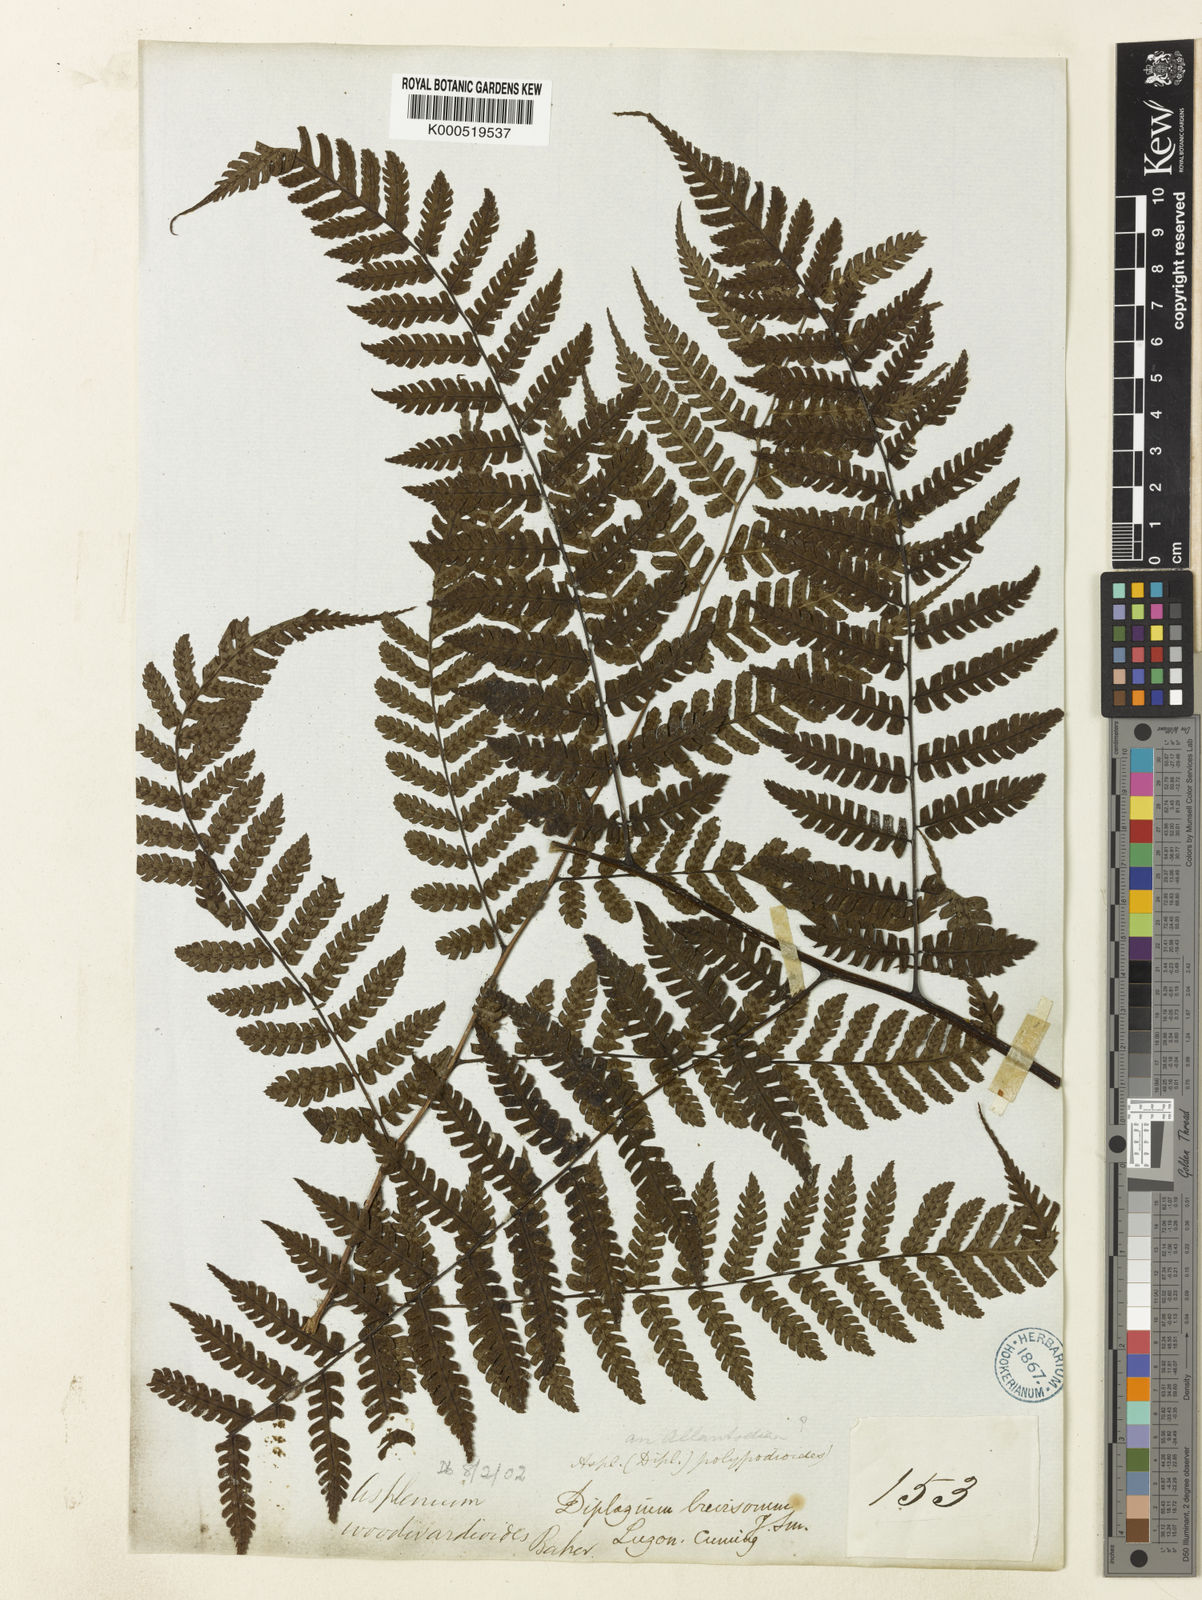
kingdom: Plantae
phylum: Tracheophyta
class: Polypodiopsida
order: Polypodiales
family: Athyriaceae
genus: Diplazium
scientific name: Diplazium woodwardioides
